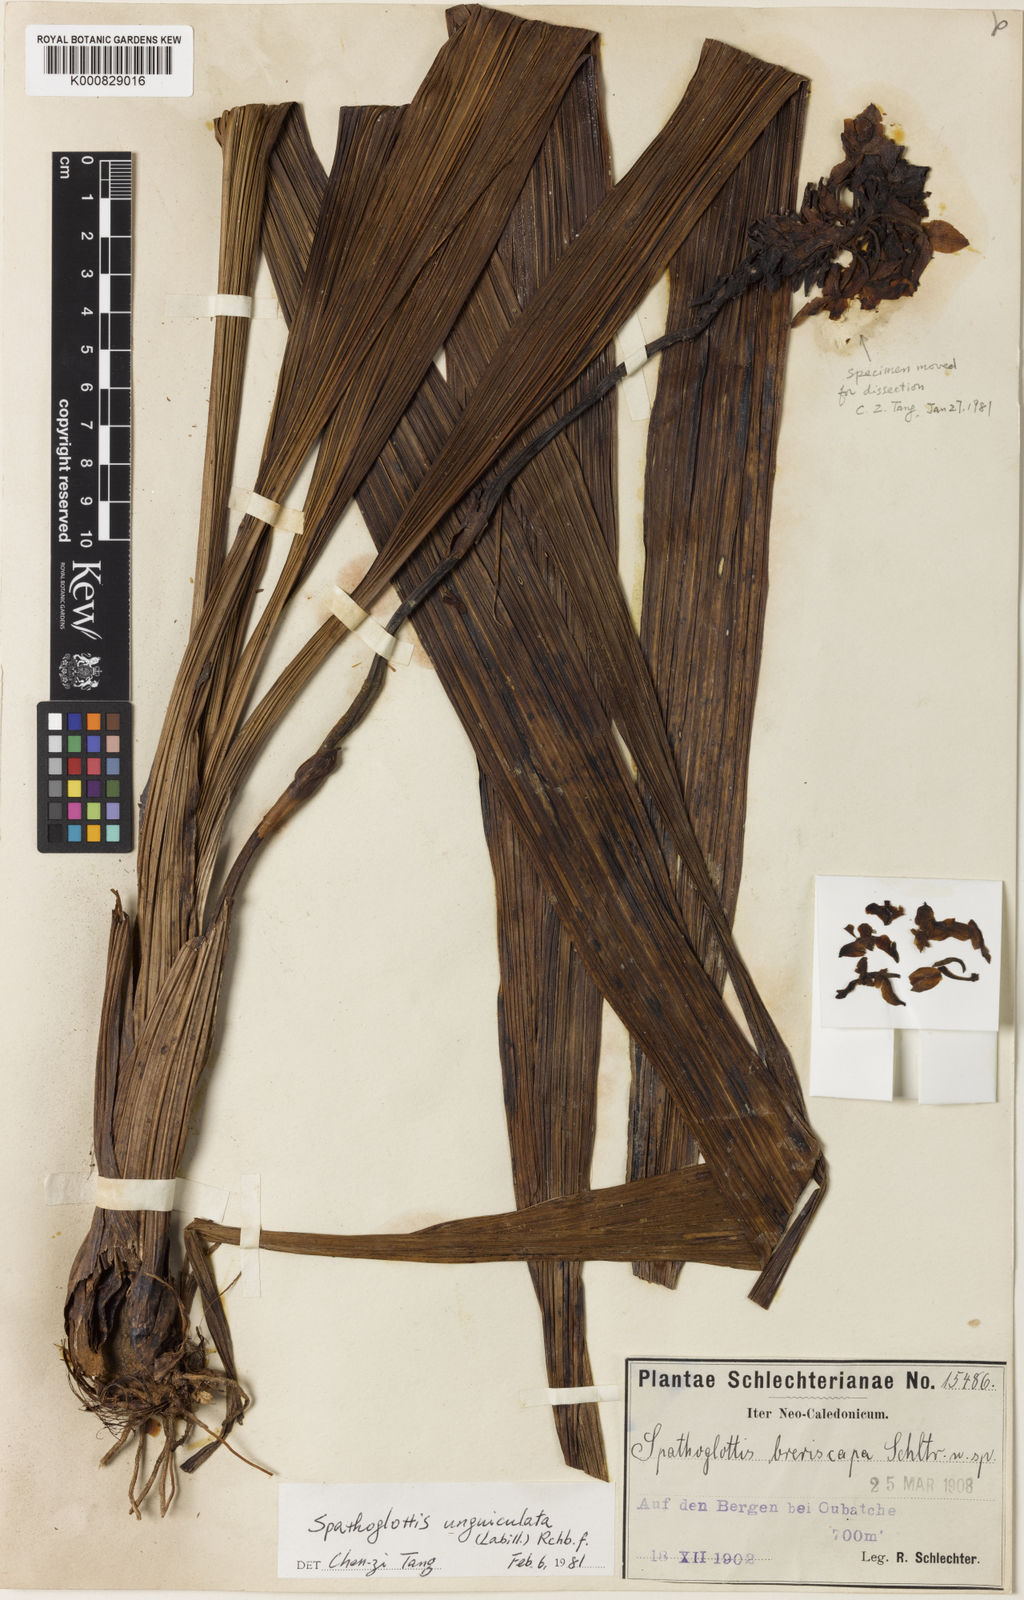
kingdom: Plantae
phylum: Tracheophyta
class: Liliopsida
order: Asparagales
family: Orchidaceae
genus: Spathoglottis
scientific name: Spathoglottis unguiculata
